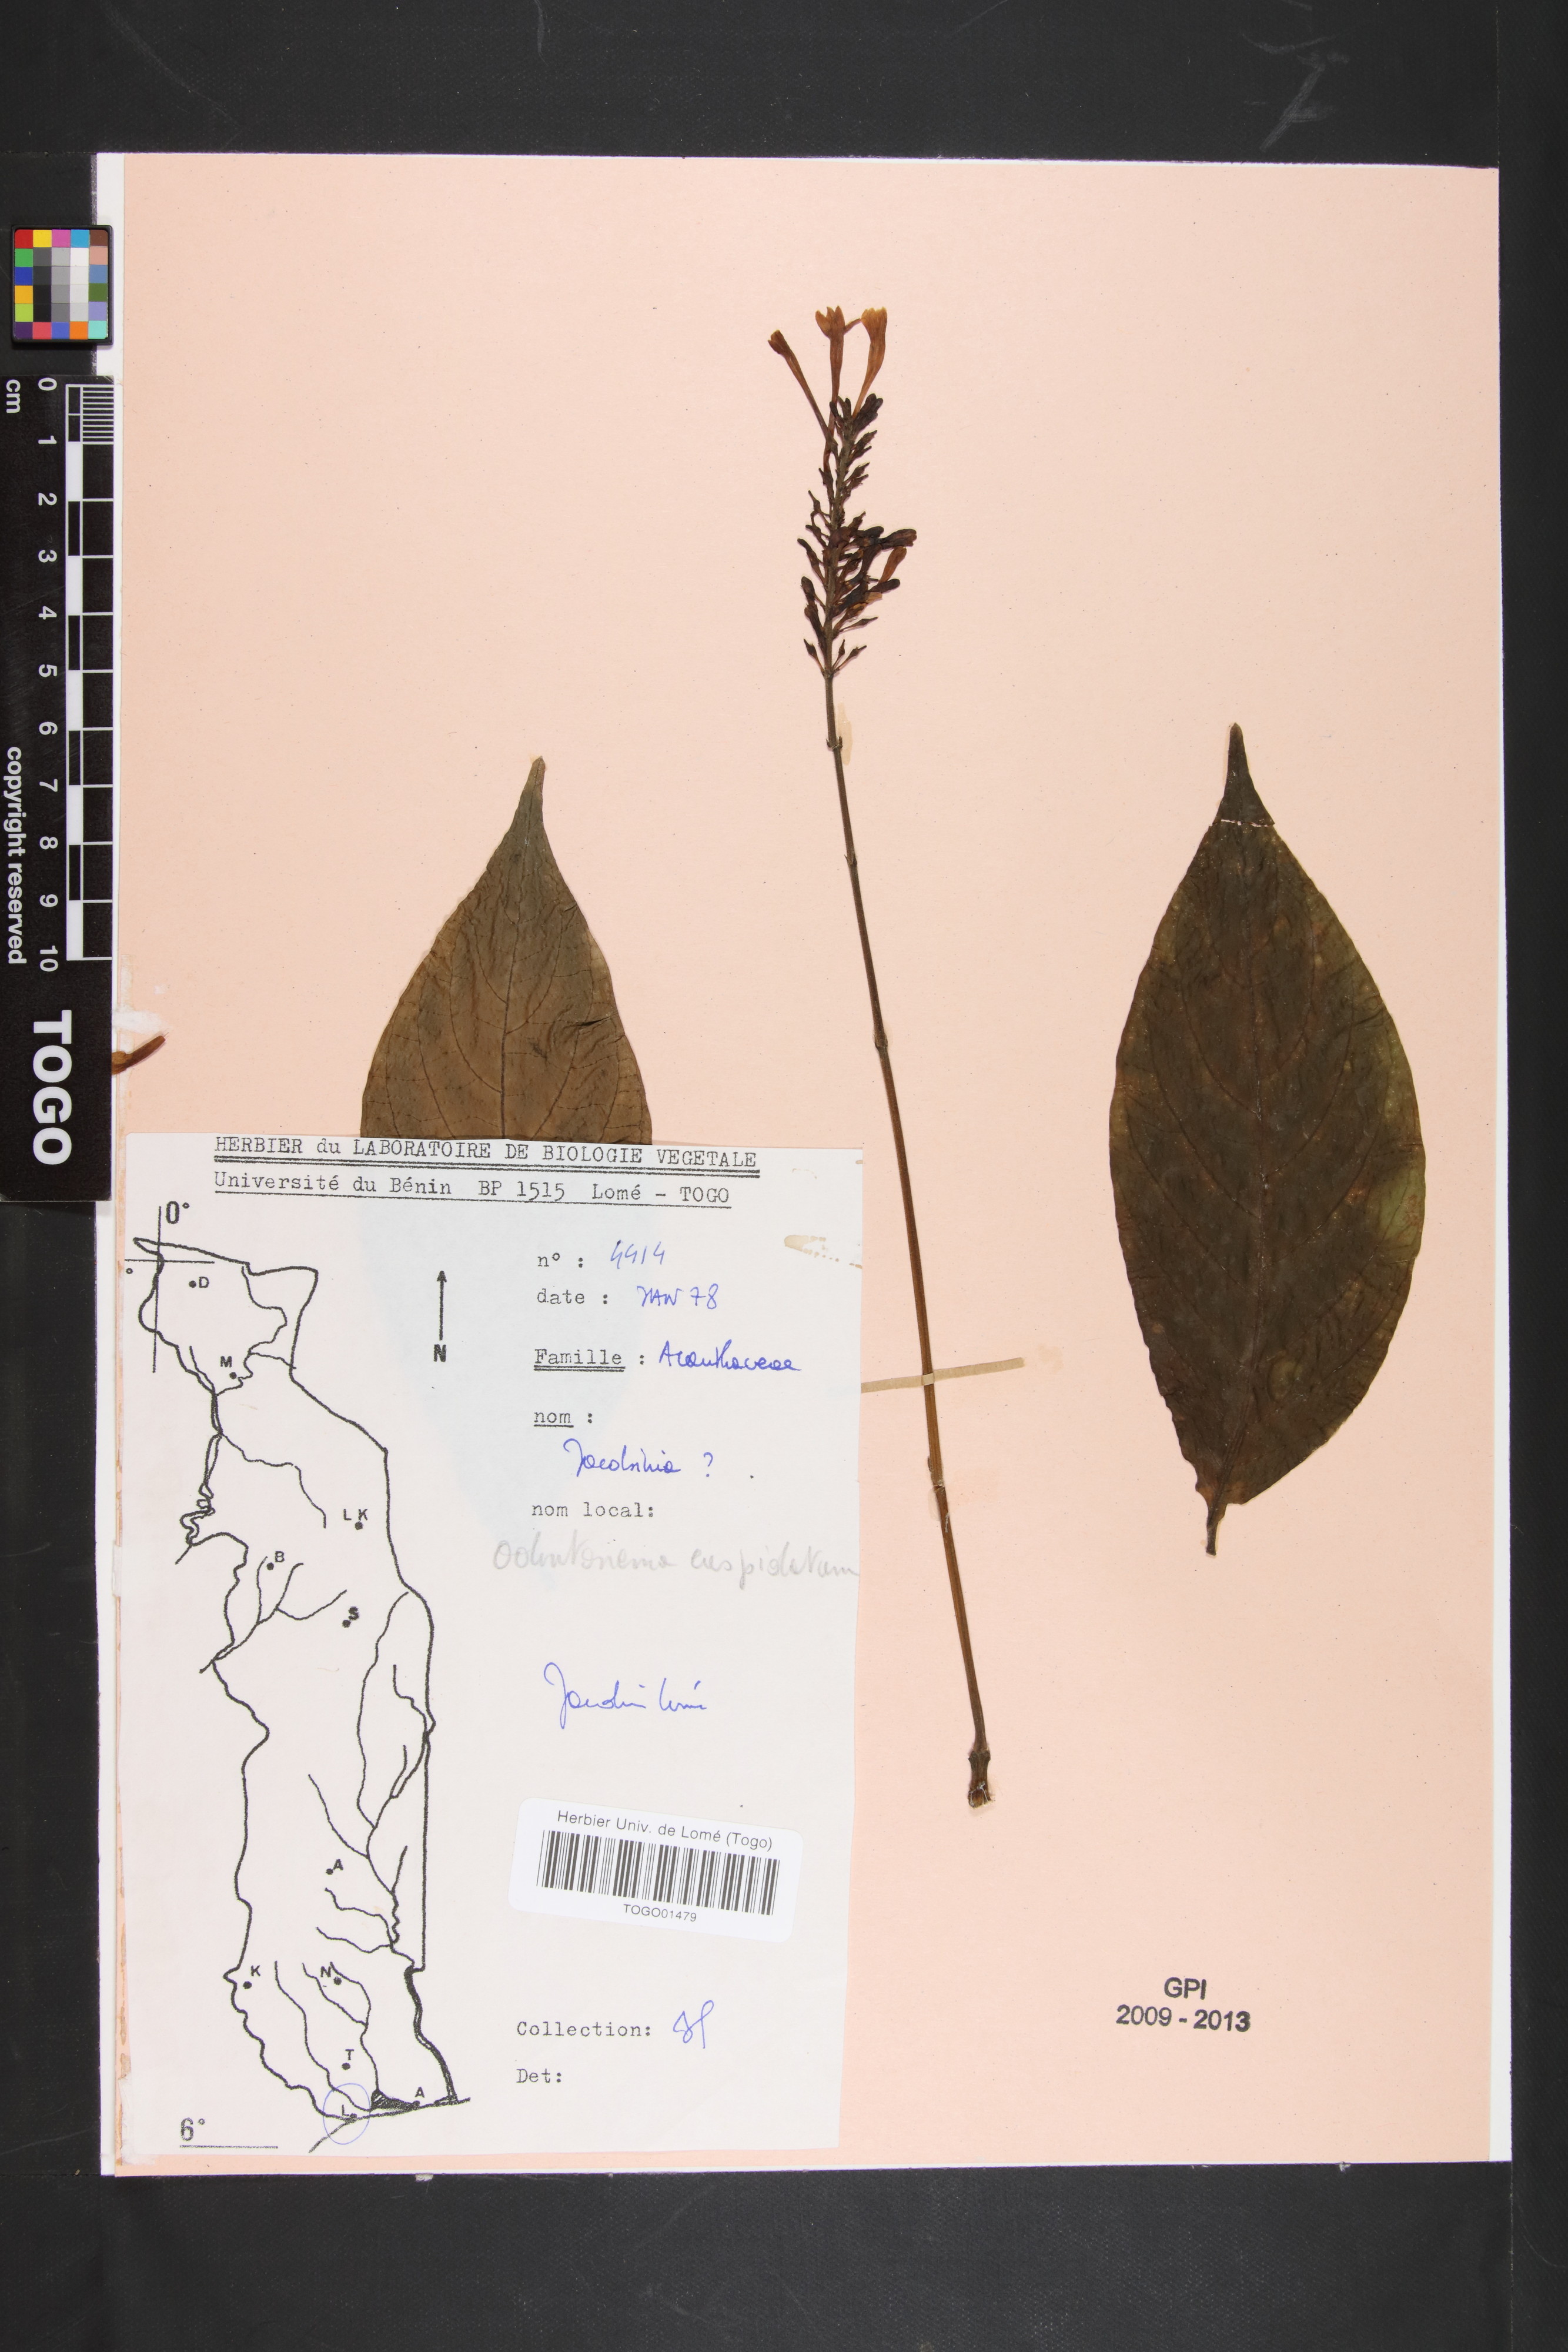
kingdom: Plantae
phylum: Tracheophyta
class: Magnoliopsida
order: Lamiales
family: Acanthaceae
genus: Odontonema
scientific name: Odontonema cuspidatum
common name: Mottled toothedthread
